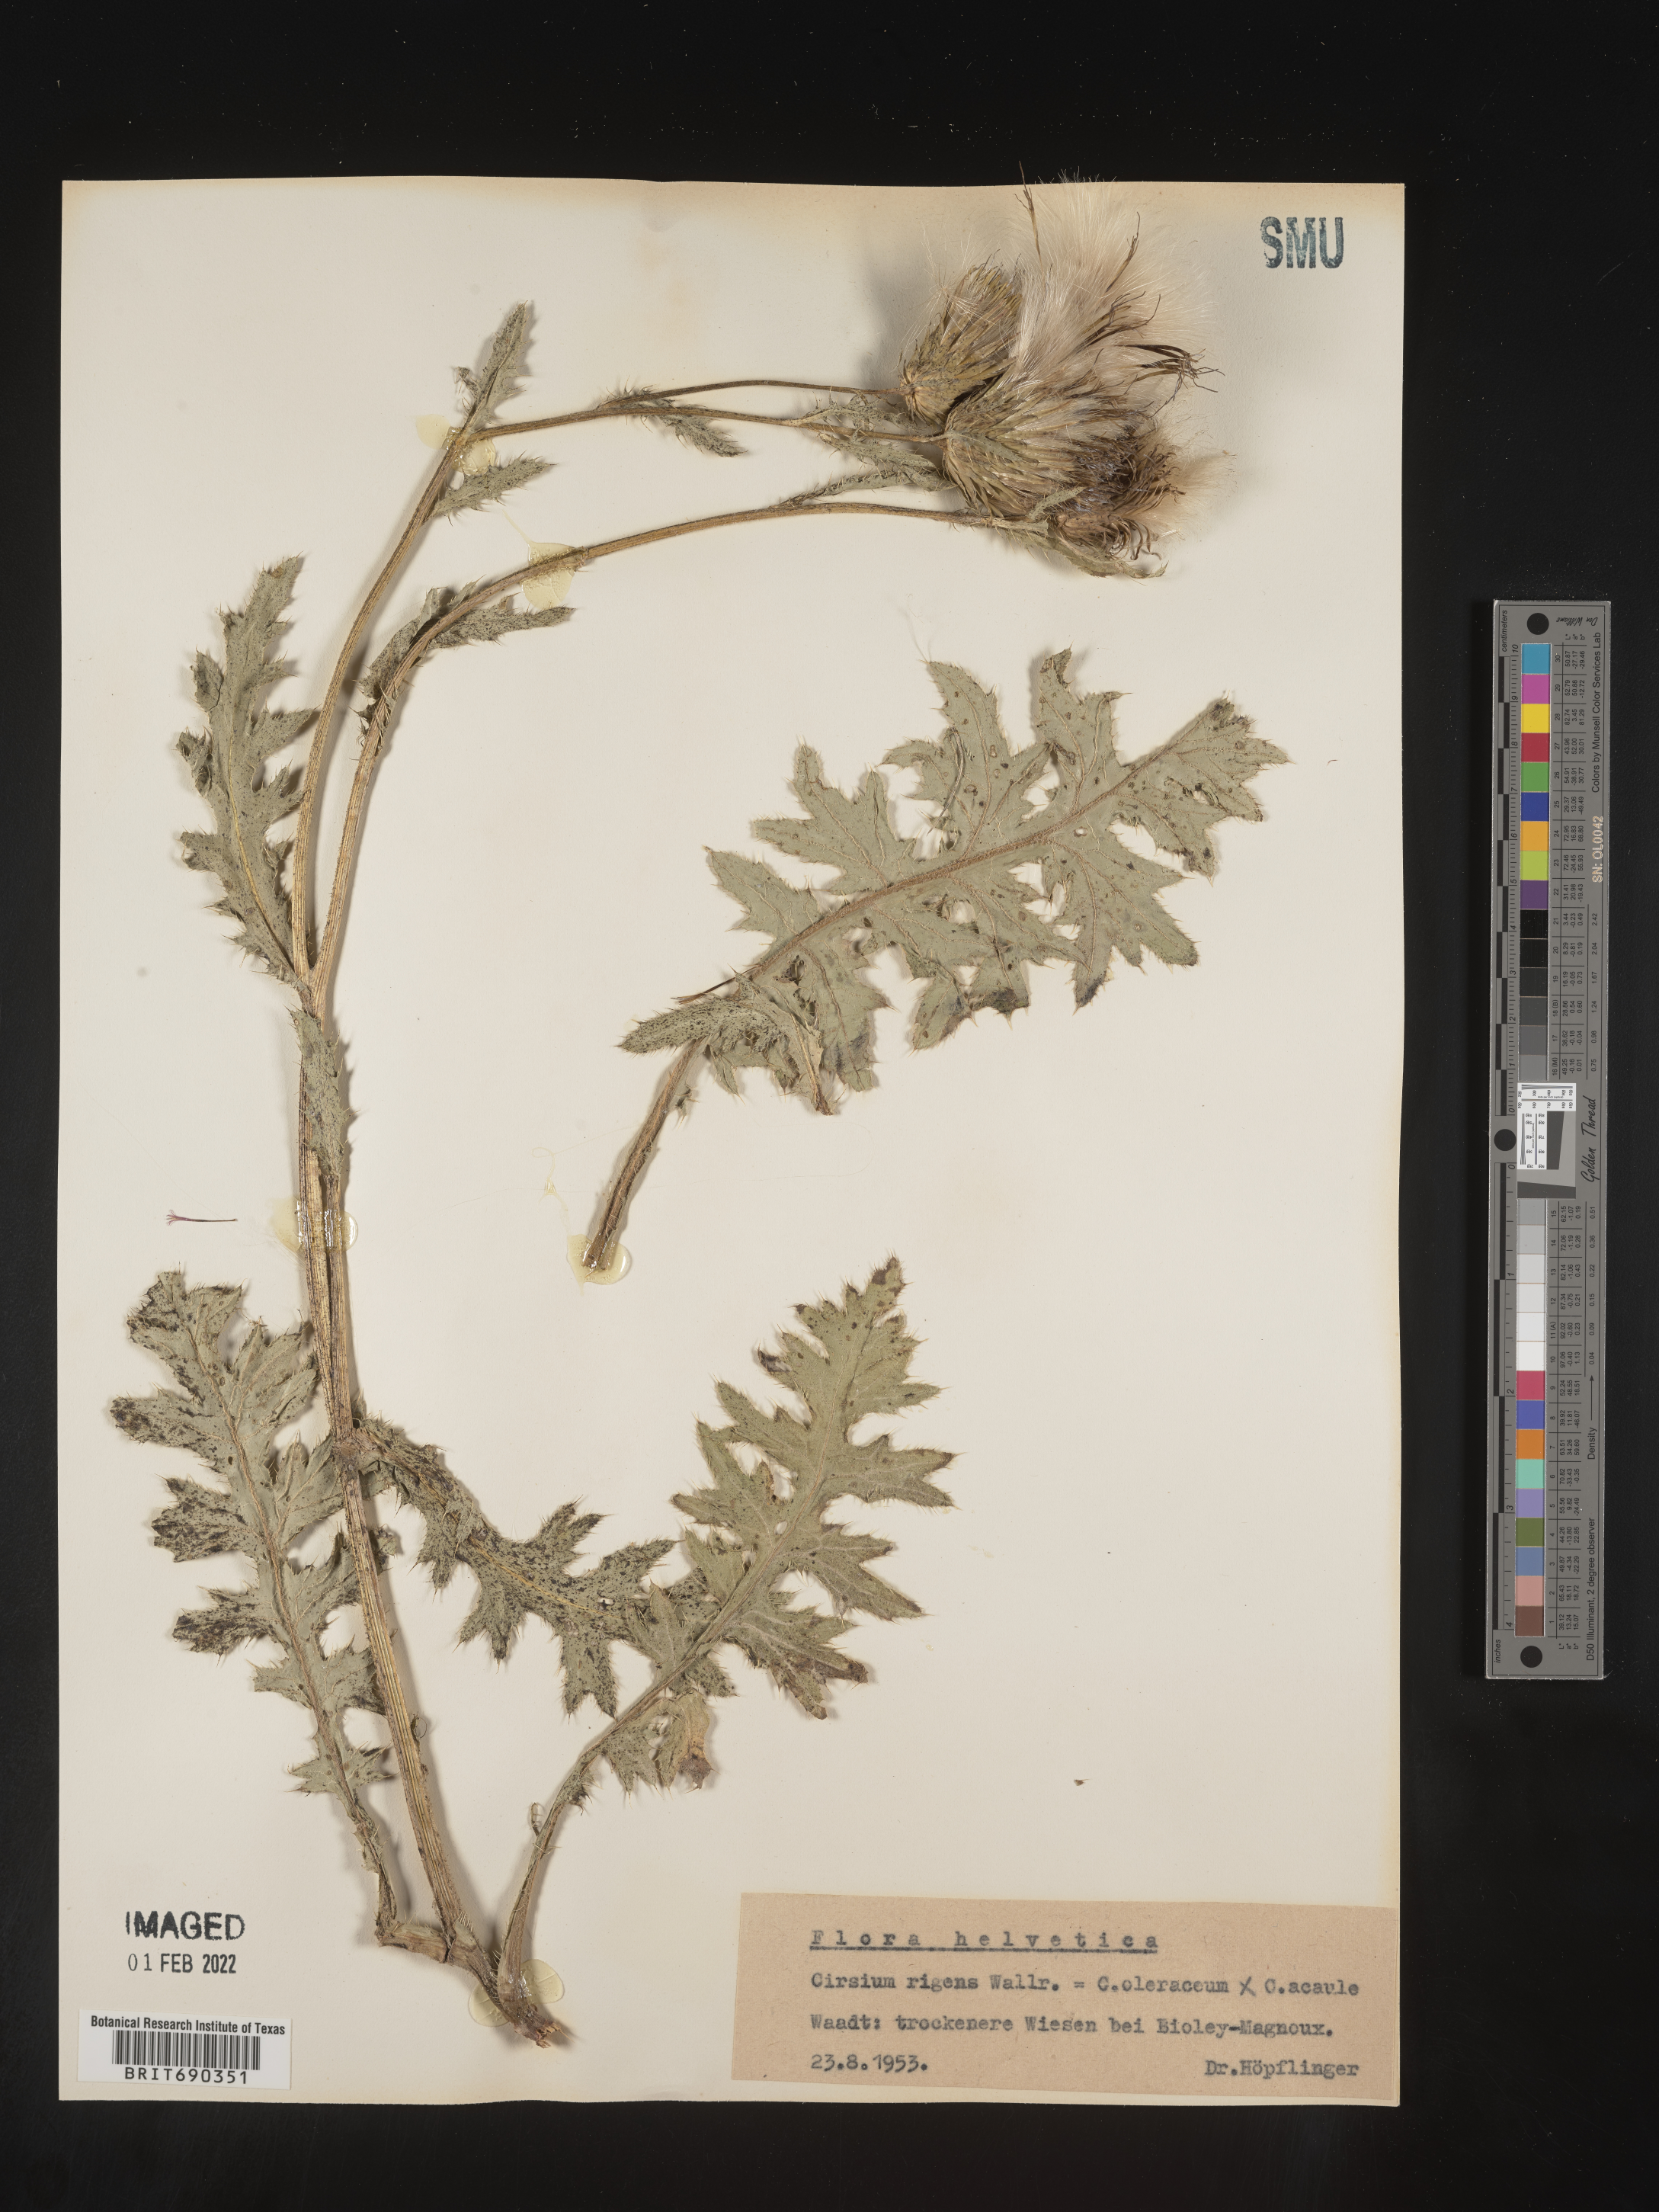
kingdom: Plantae
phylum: Tracheophyta
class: Magnoliopsida
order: Asterales
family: Asteraceae
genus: Cirsium
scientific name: Cirsium
